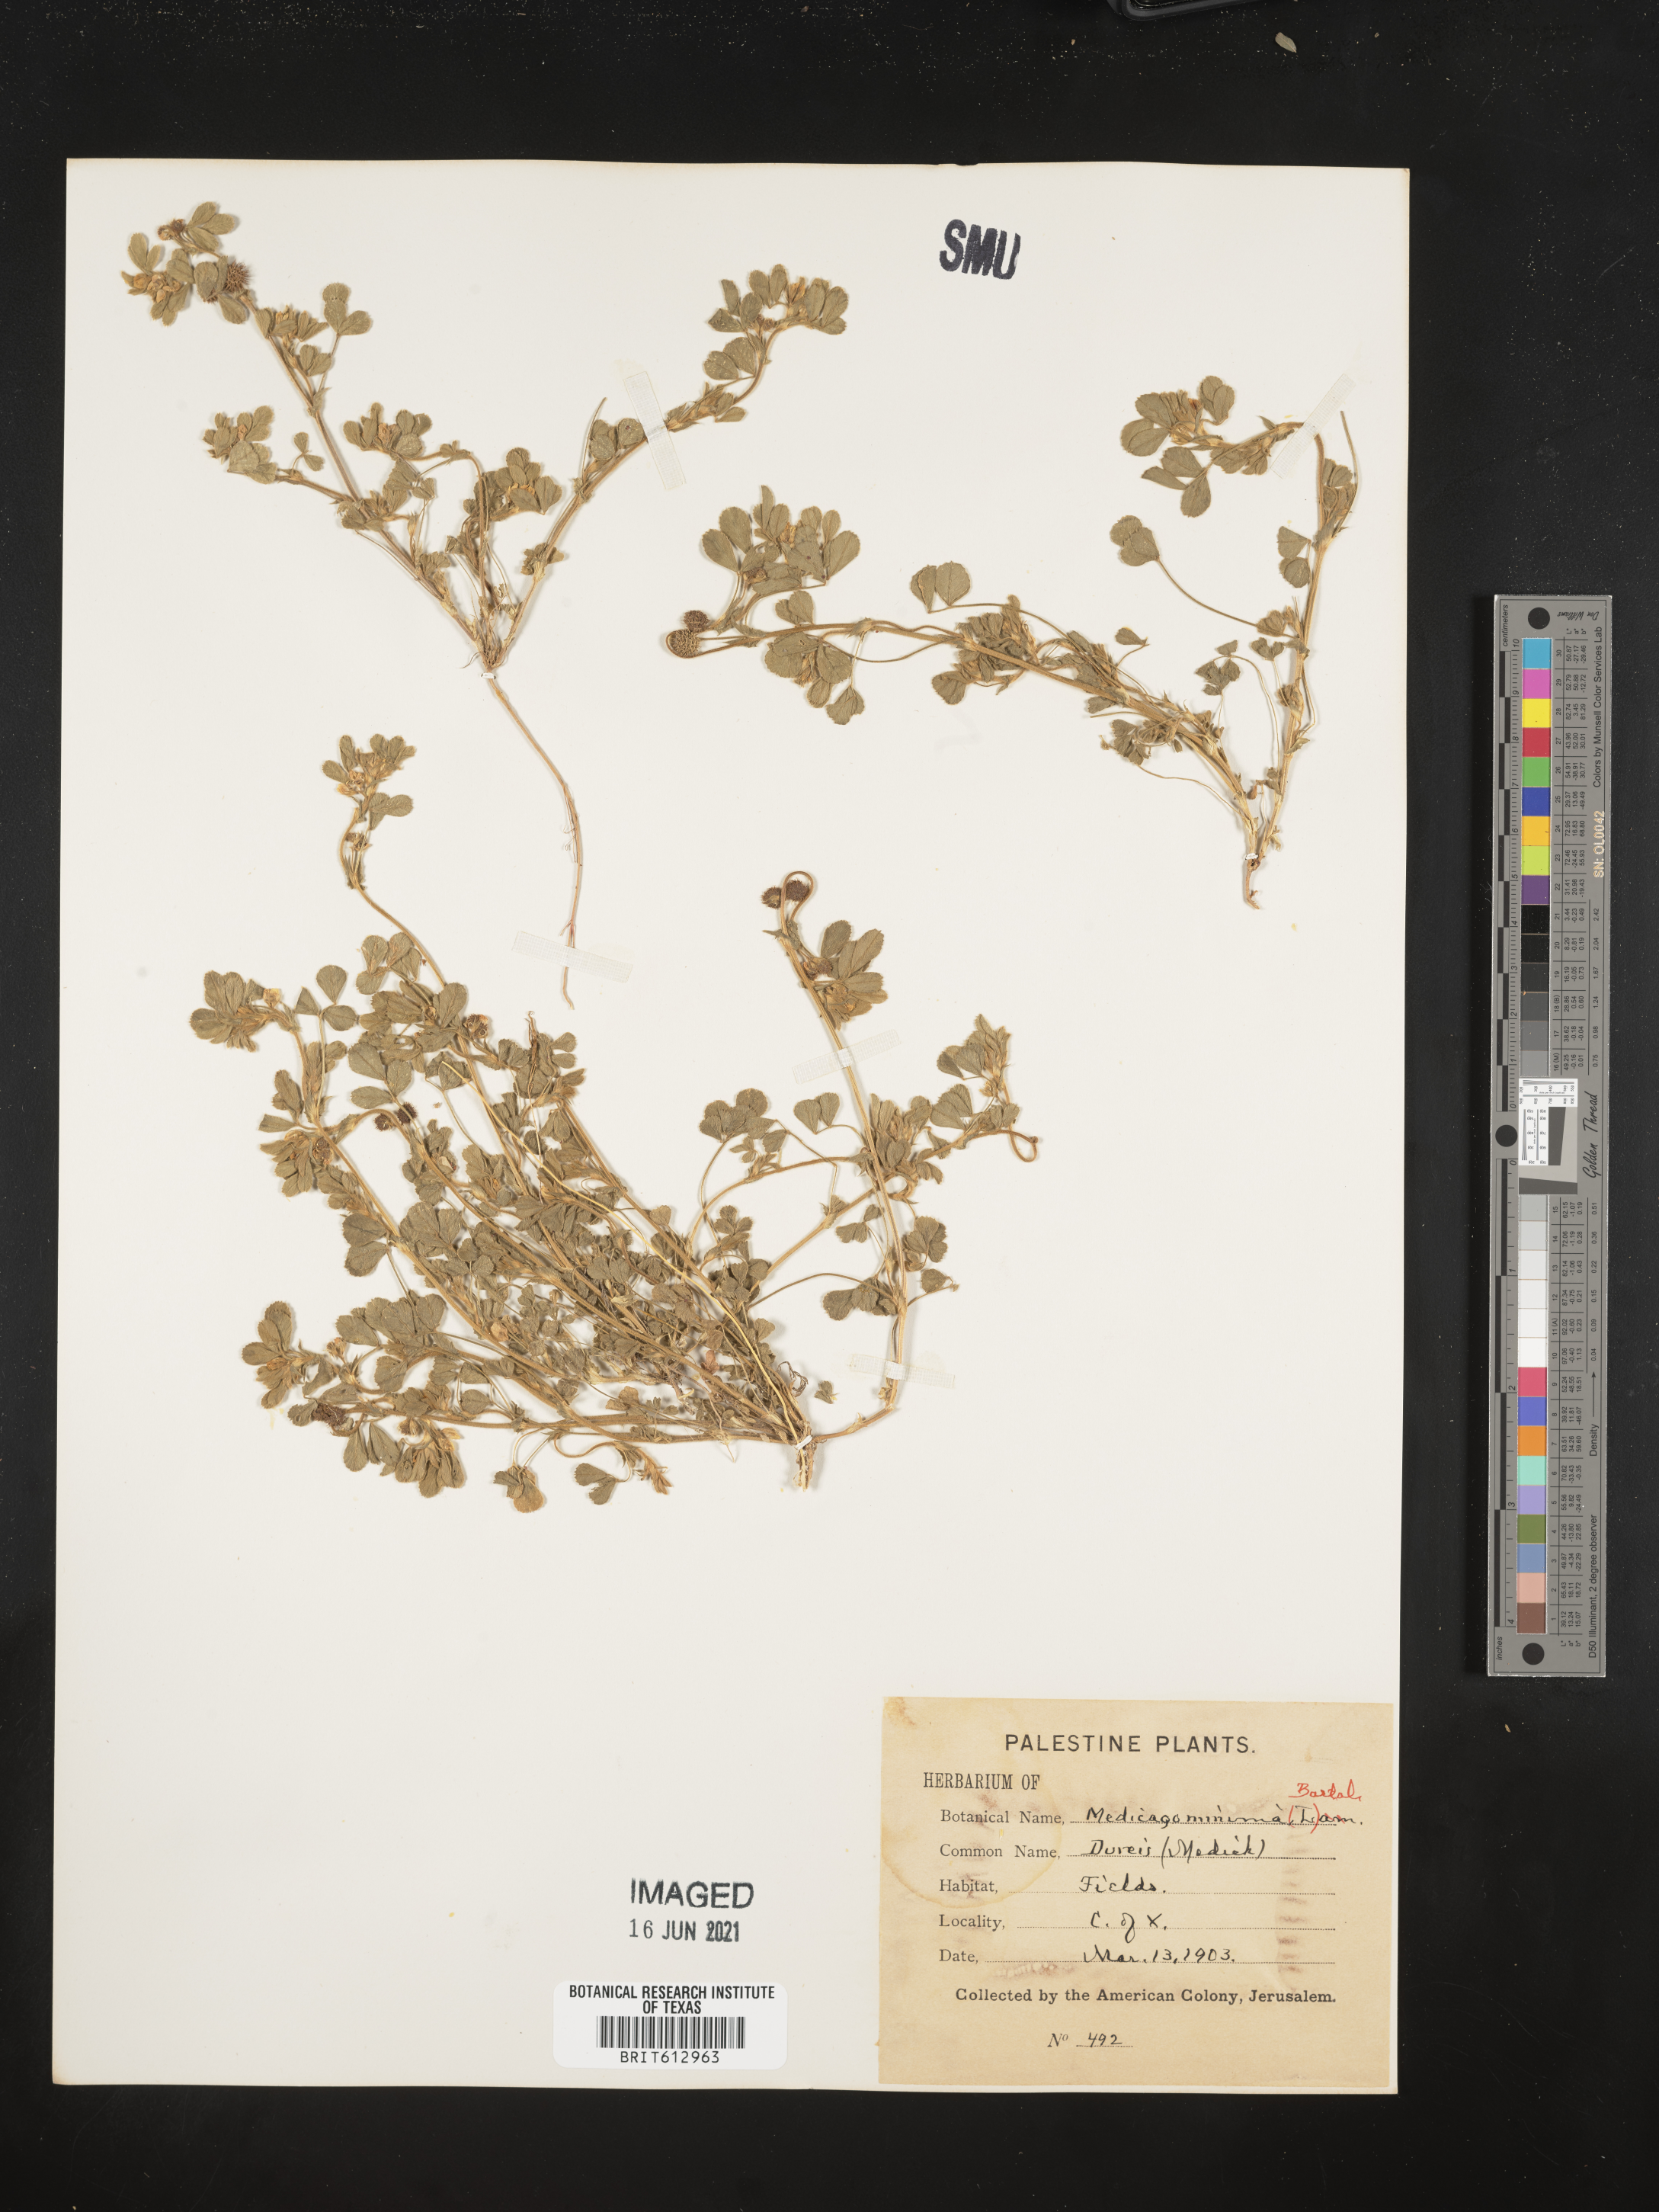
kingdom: Plantae
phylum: Tracheophyta
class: Magnoliopsida
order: Fabales
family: Fabaceae
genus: Medicago
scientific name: Medicago minima
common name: Little bur-clover
